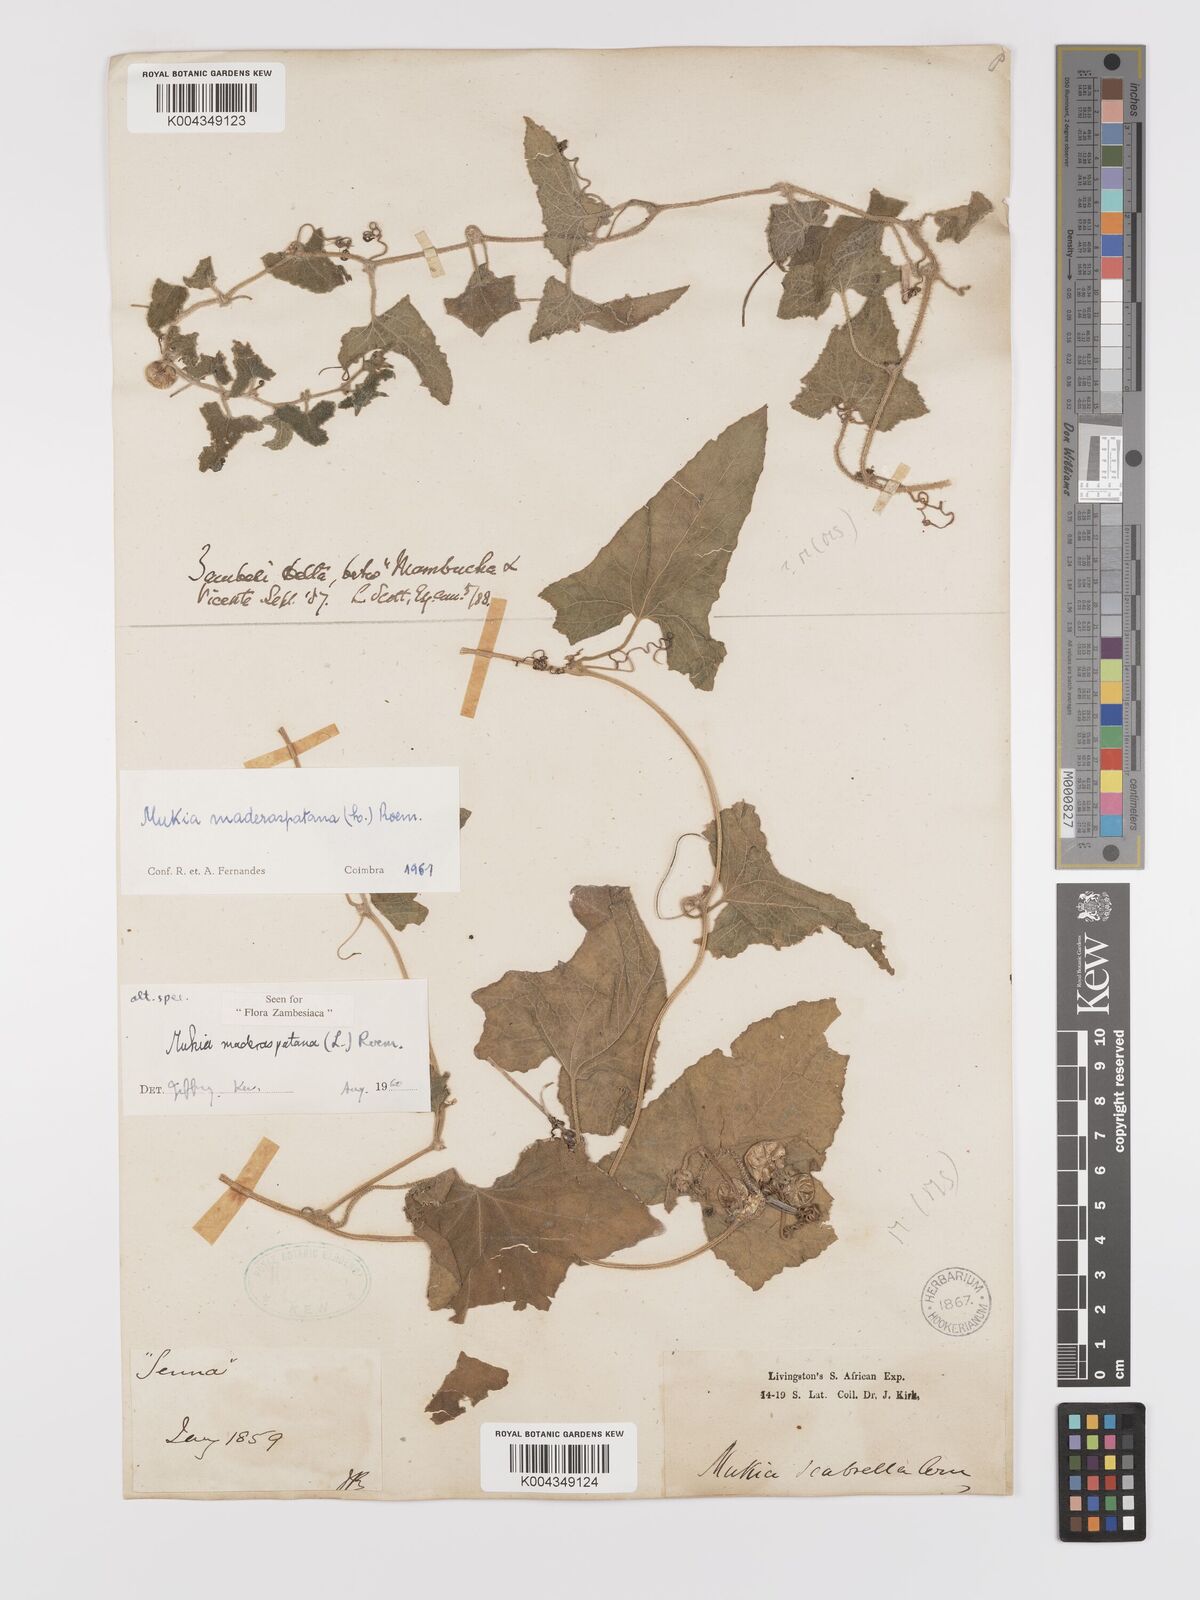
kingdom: Plantae
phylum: Tracheophyta
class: Magnoliopsida
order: Cucurbitales
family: Cucurbitaceae
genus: Cucumis
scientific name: Cucumis maderaspatanus
